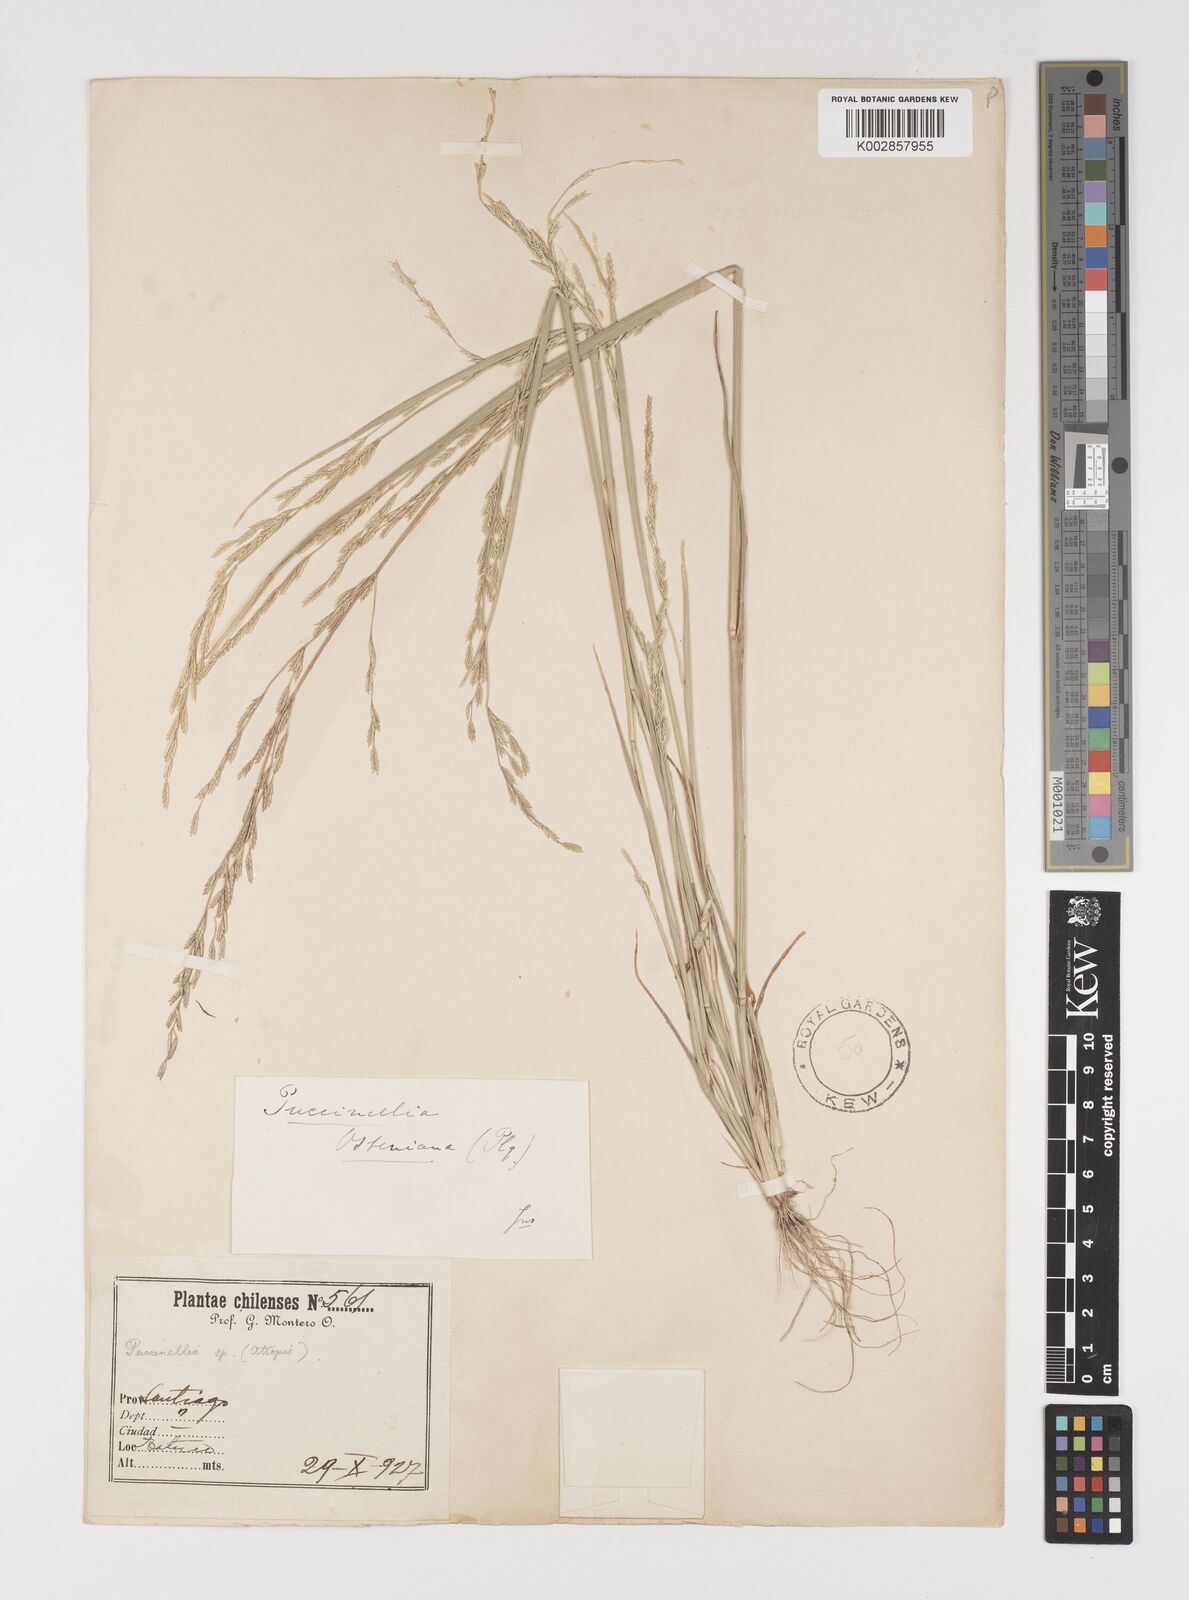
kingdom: Plantae
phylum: Tracheophyta
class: Liliopsida
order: Poales
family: Poaceae
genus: Puccinellia
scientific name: Puccinellia glaucescens
